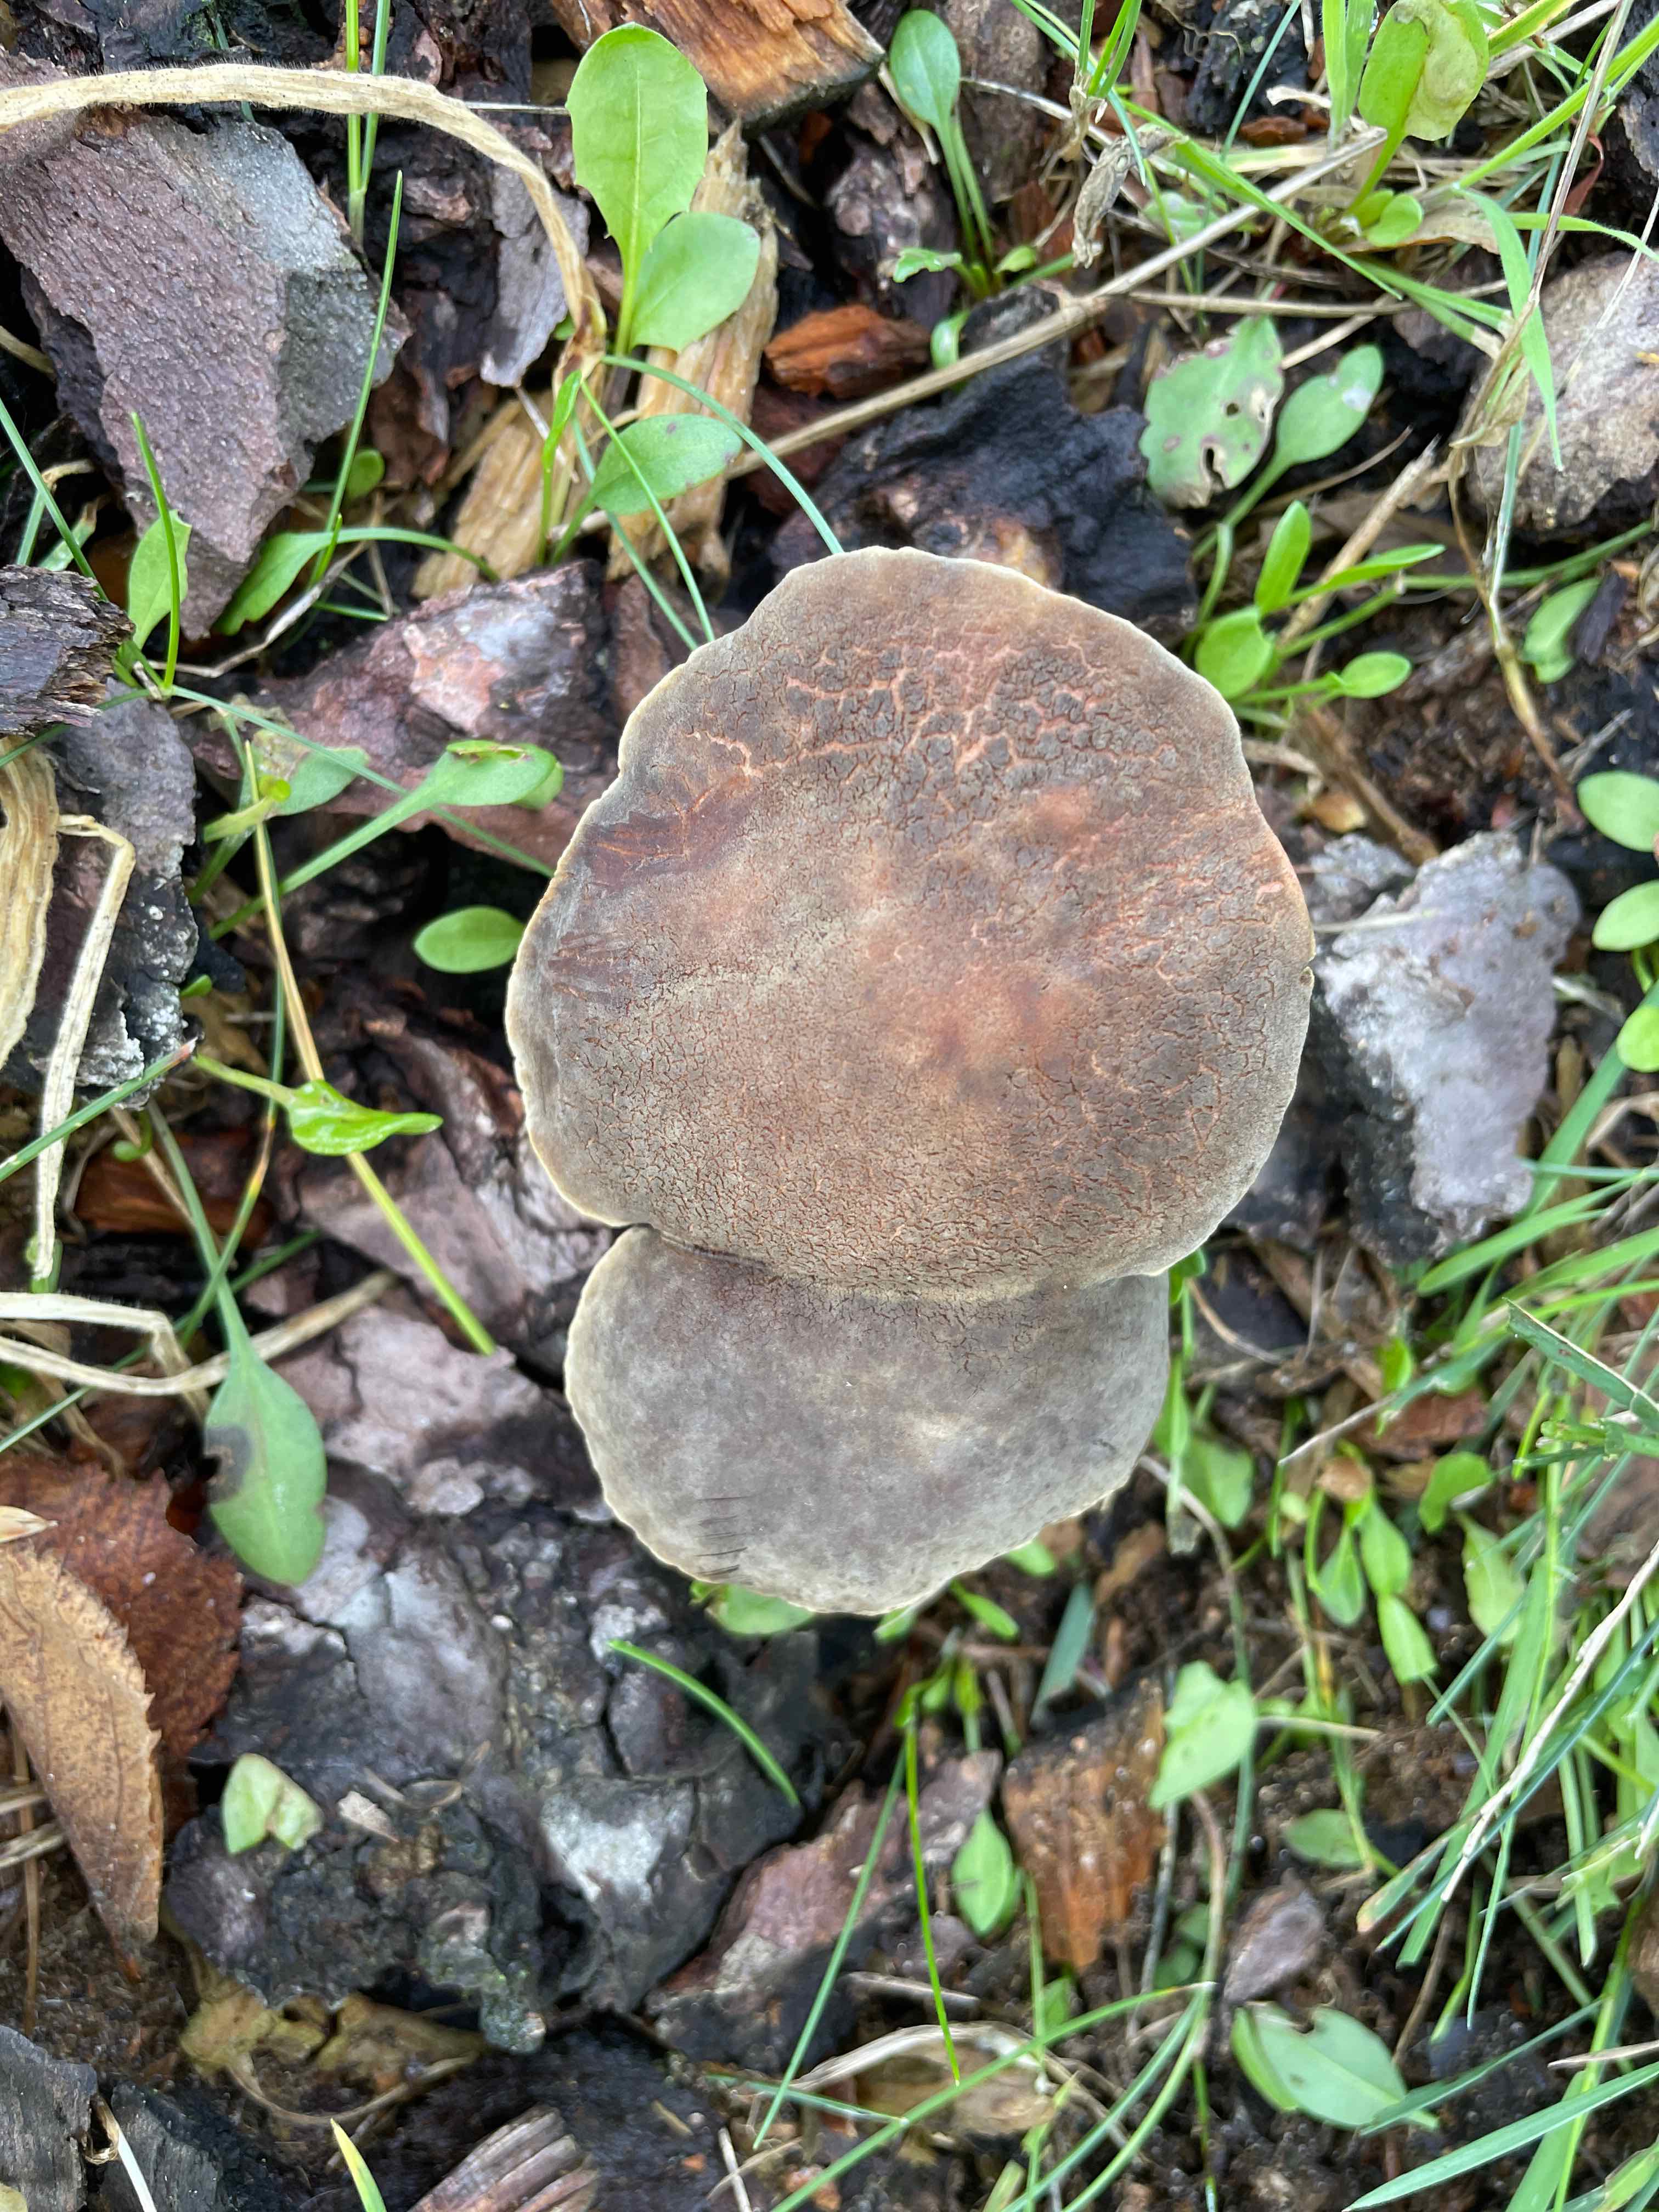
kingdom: Fungi
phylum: Basidiomycota
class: Agaricomycetes
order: Boletales
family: Boletaceae
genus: Xerocomellus
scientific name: Xerocomellus cisalpinus
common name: finsprukken rørhat
